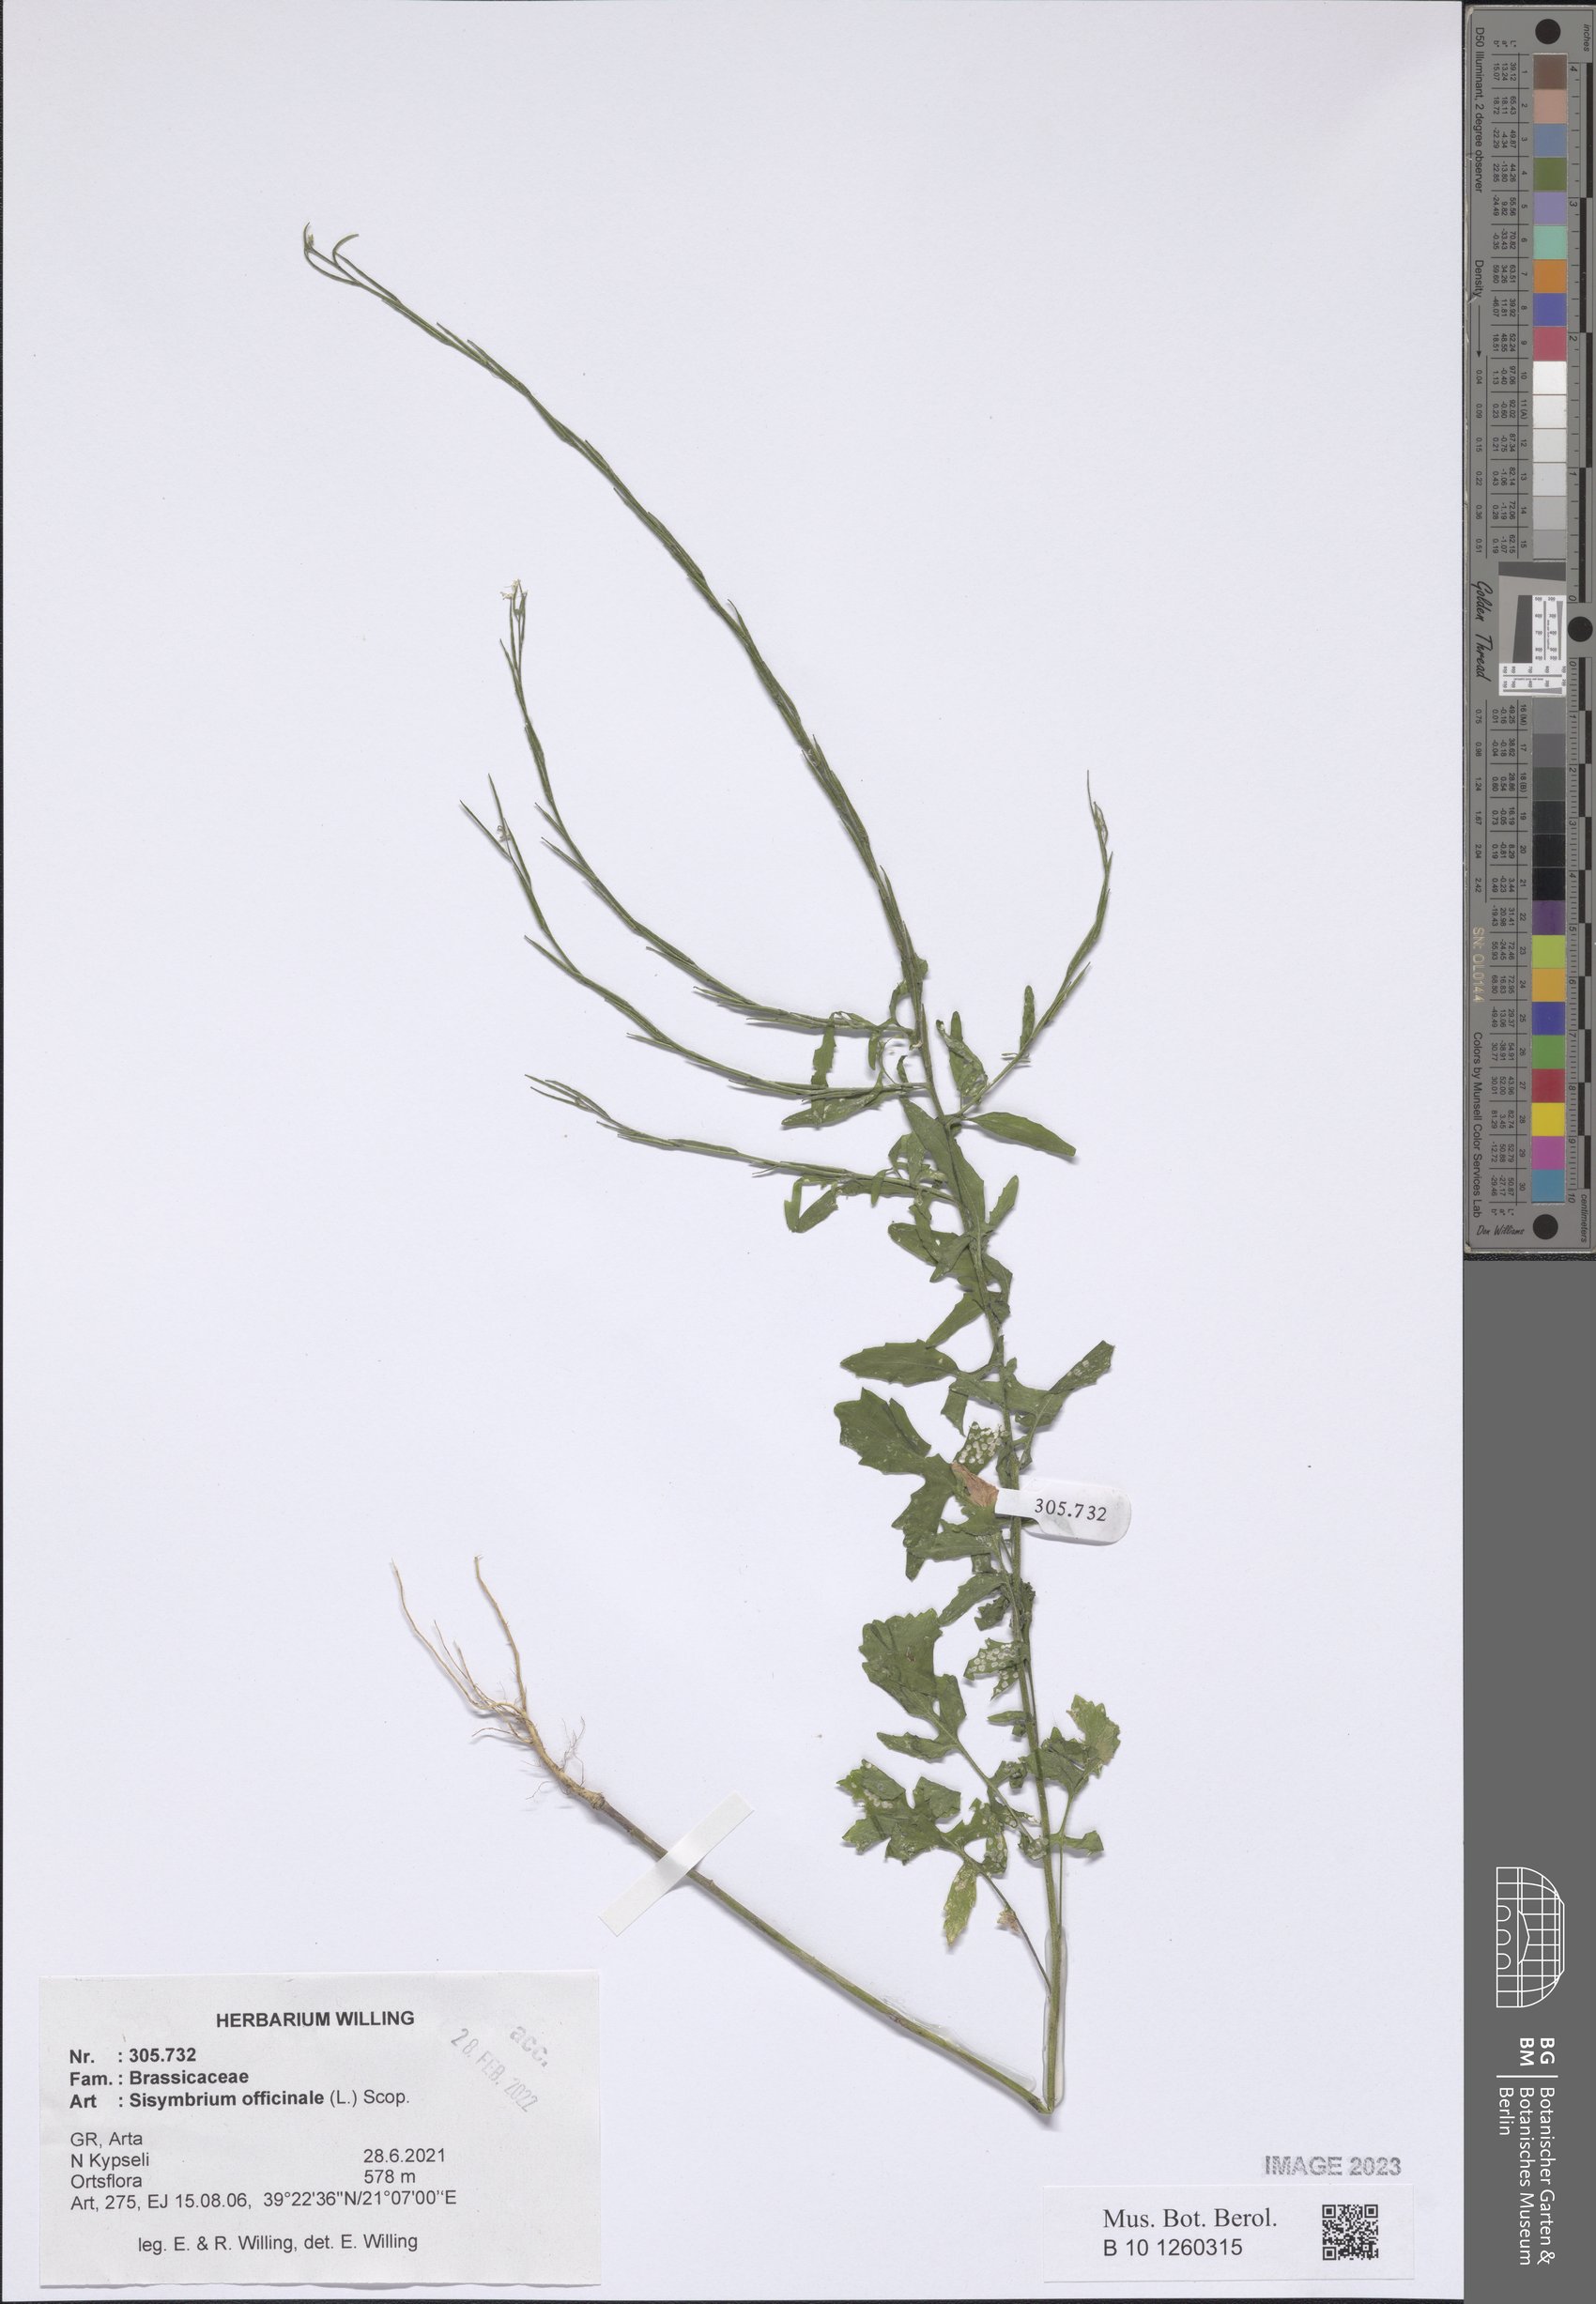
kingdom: Plantae
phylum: Tracheophyta
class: Magnoliopsida
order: Brassicales
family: Brassicaceae
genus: Sisymbrium
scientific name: Sisymbrium officinale
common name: Hedge mustard
